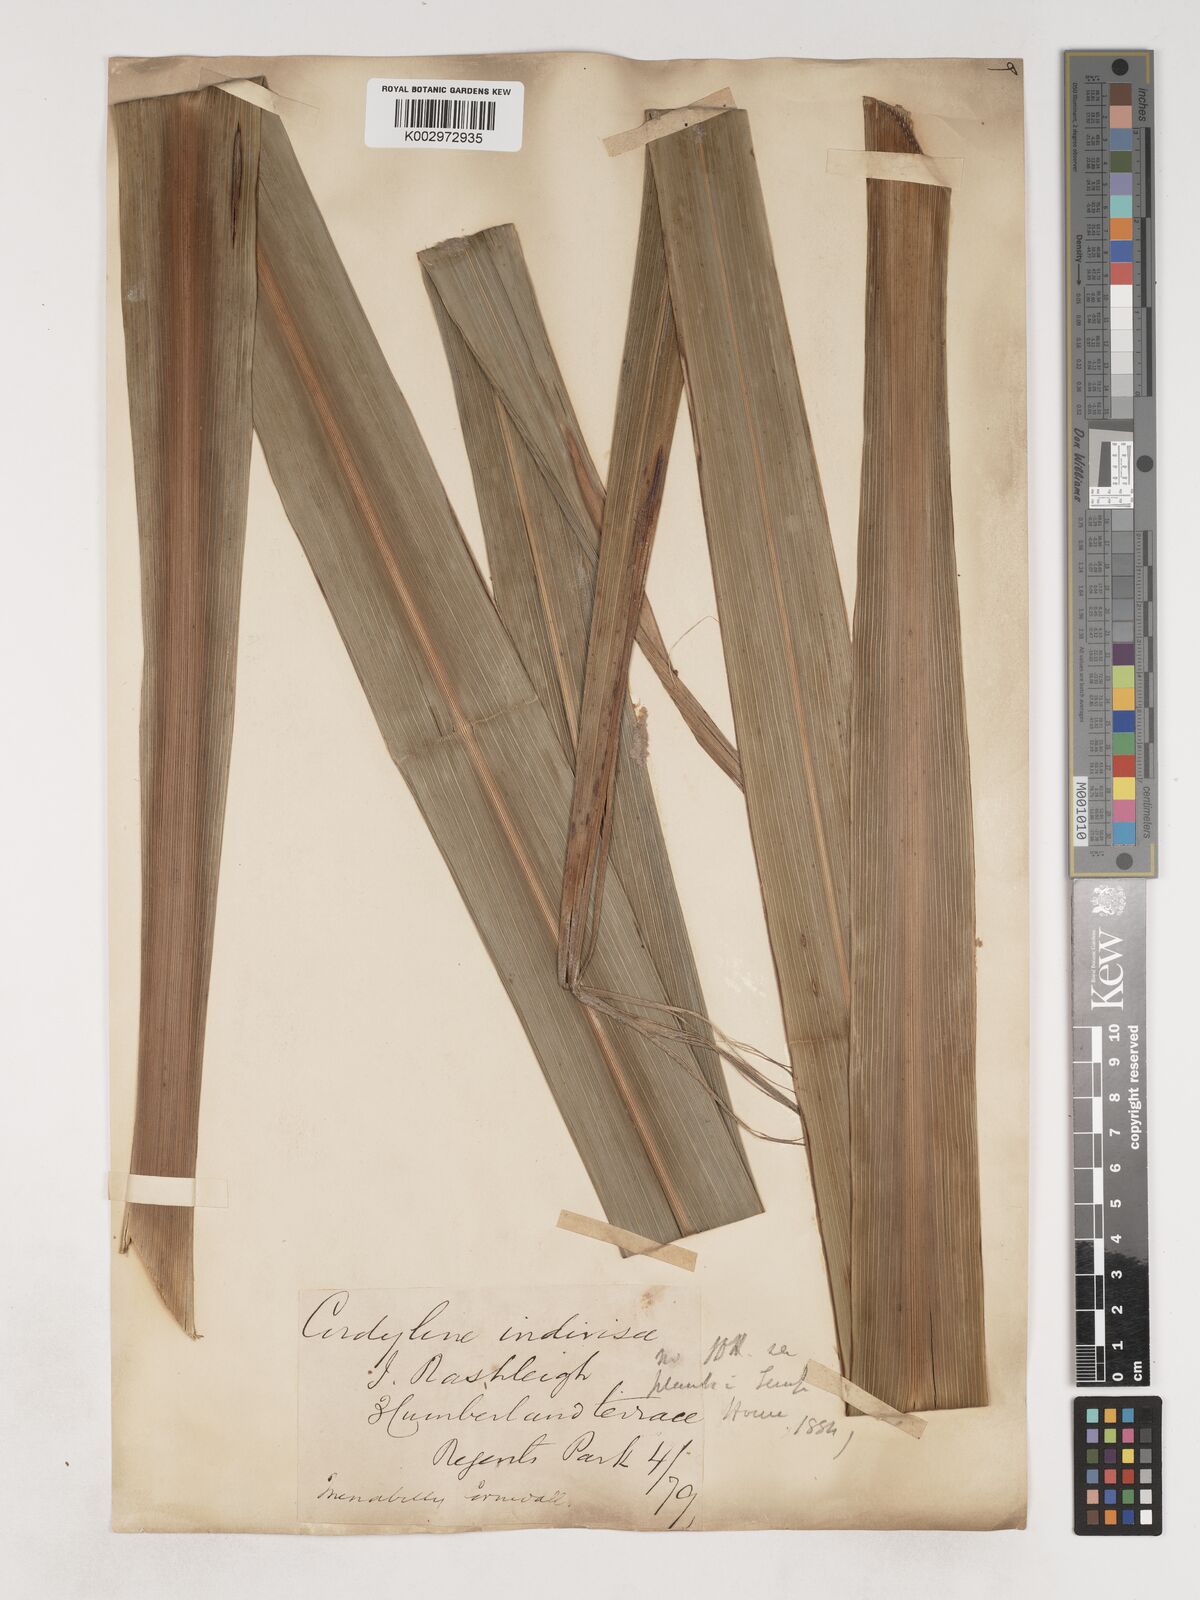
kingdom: Plantae
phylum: Tracheophyta
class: Liliopsida
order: Asparagales
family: Asparagaceae
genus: Cordyline
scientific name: Cordyline australis
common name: Cabbage-palm
